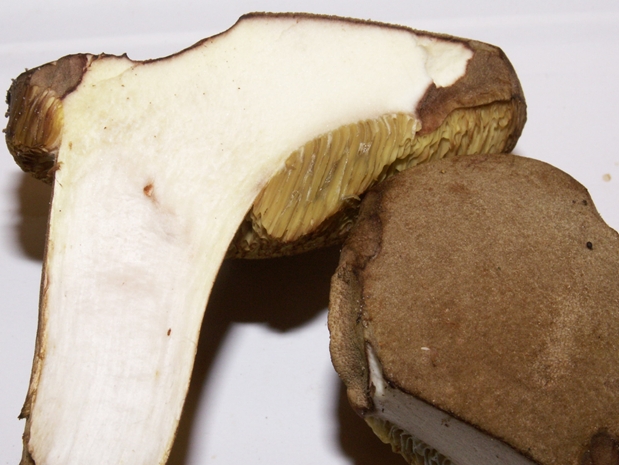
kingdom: Fungi
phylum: Basidiomycota
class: Agaricomycetes
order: Boletales
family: Boletaceae
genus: Xerocomus
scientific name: Xerocomus ferrugineus
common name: vaskeskinds-rørhat
